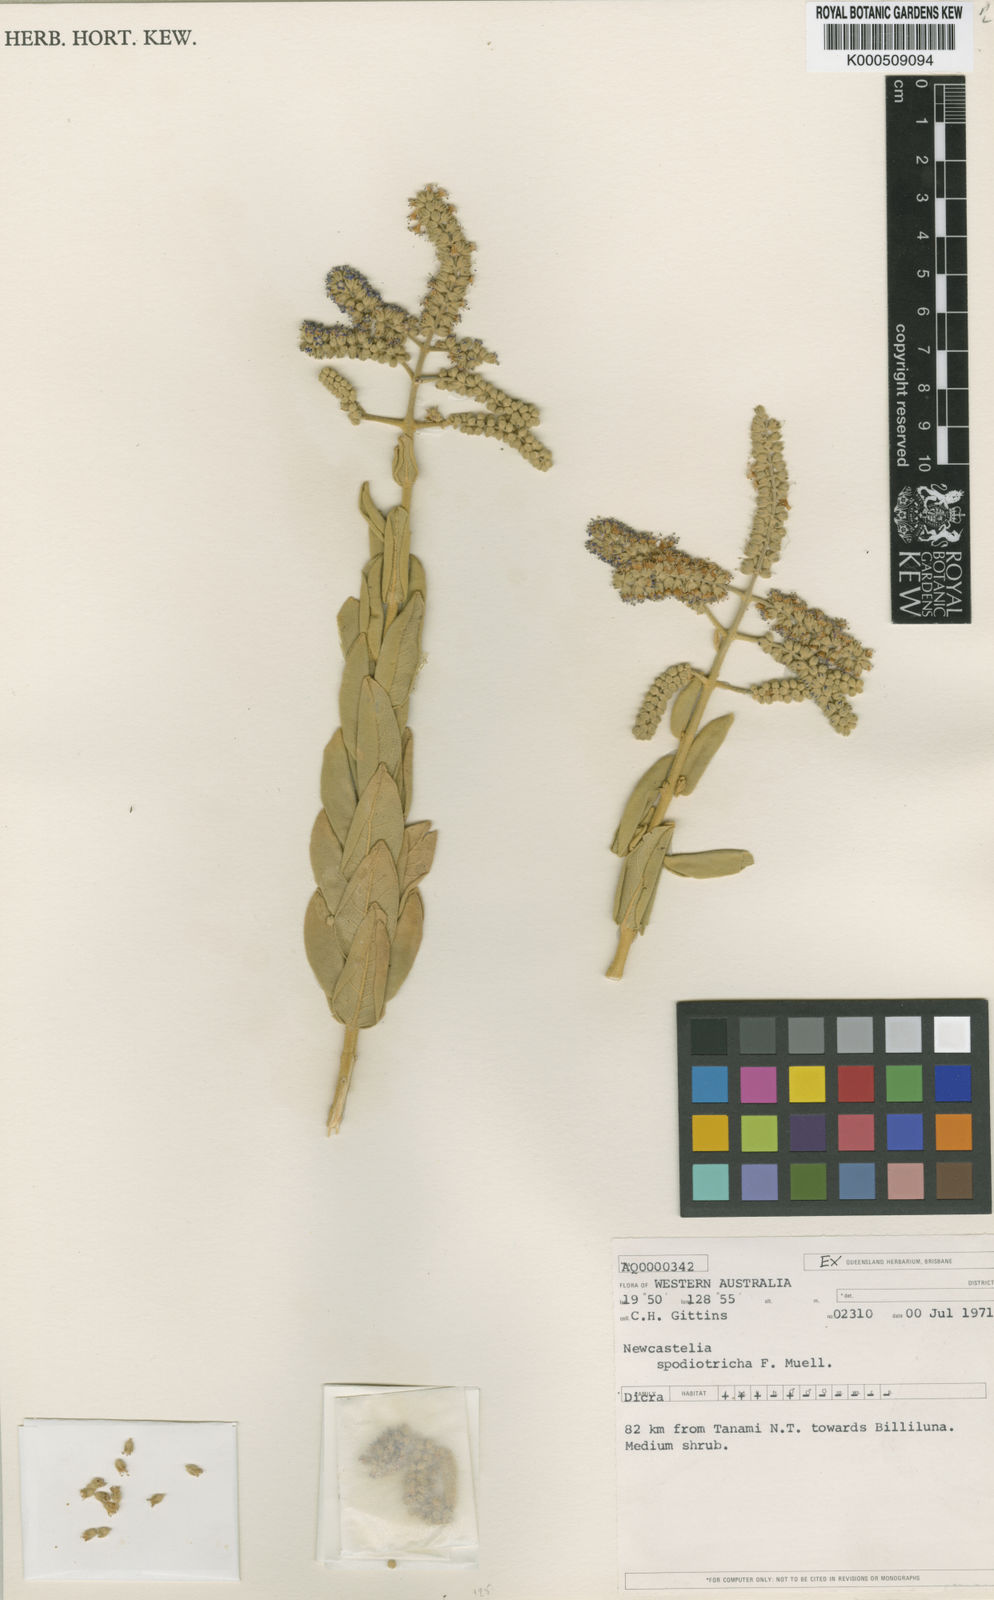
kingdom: Plantae
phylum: Tracheophyta
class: Magnoliopsida
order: Lamiales
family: Lamiaceae
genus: Newcastelia
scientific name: Newcastelia spodiotricha
